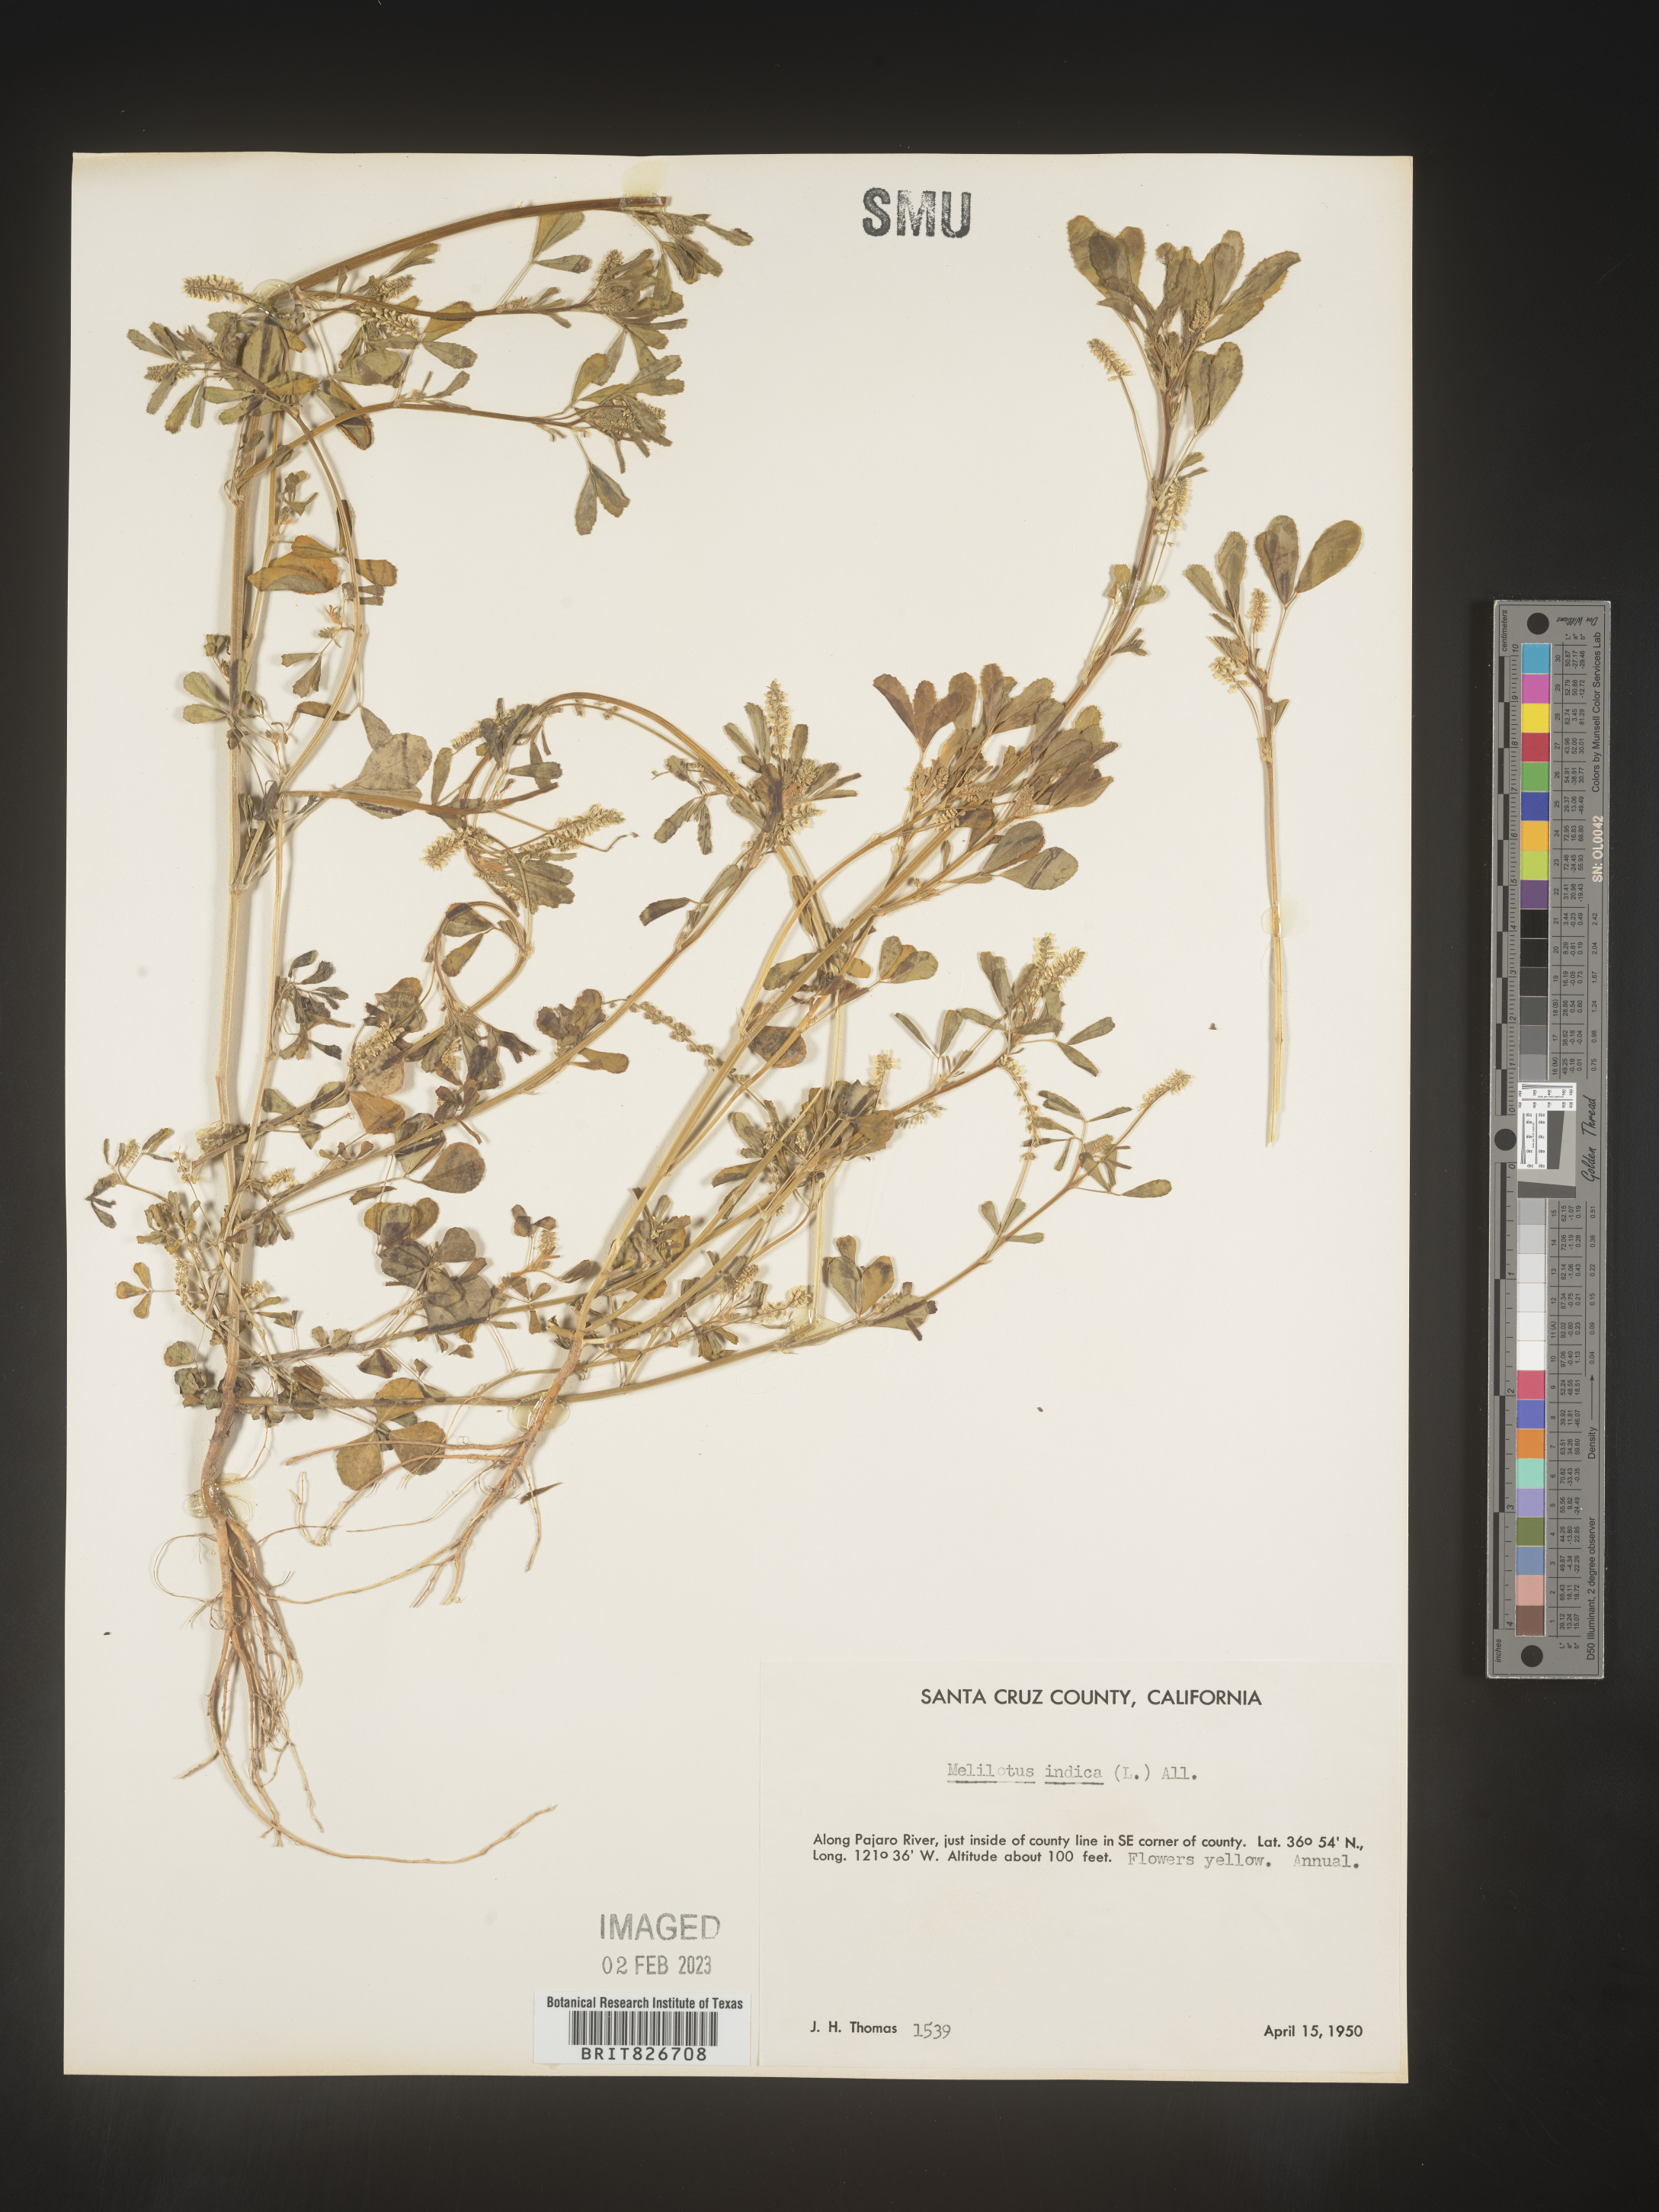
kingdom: Plantae
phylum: Tracheophyta
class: Magnoliopsida
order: Fabales
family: Fabaceae
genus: Melilotus
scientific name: Melilotus indicus
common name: Small melilot
